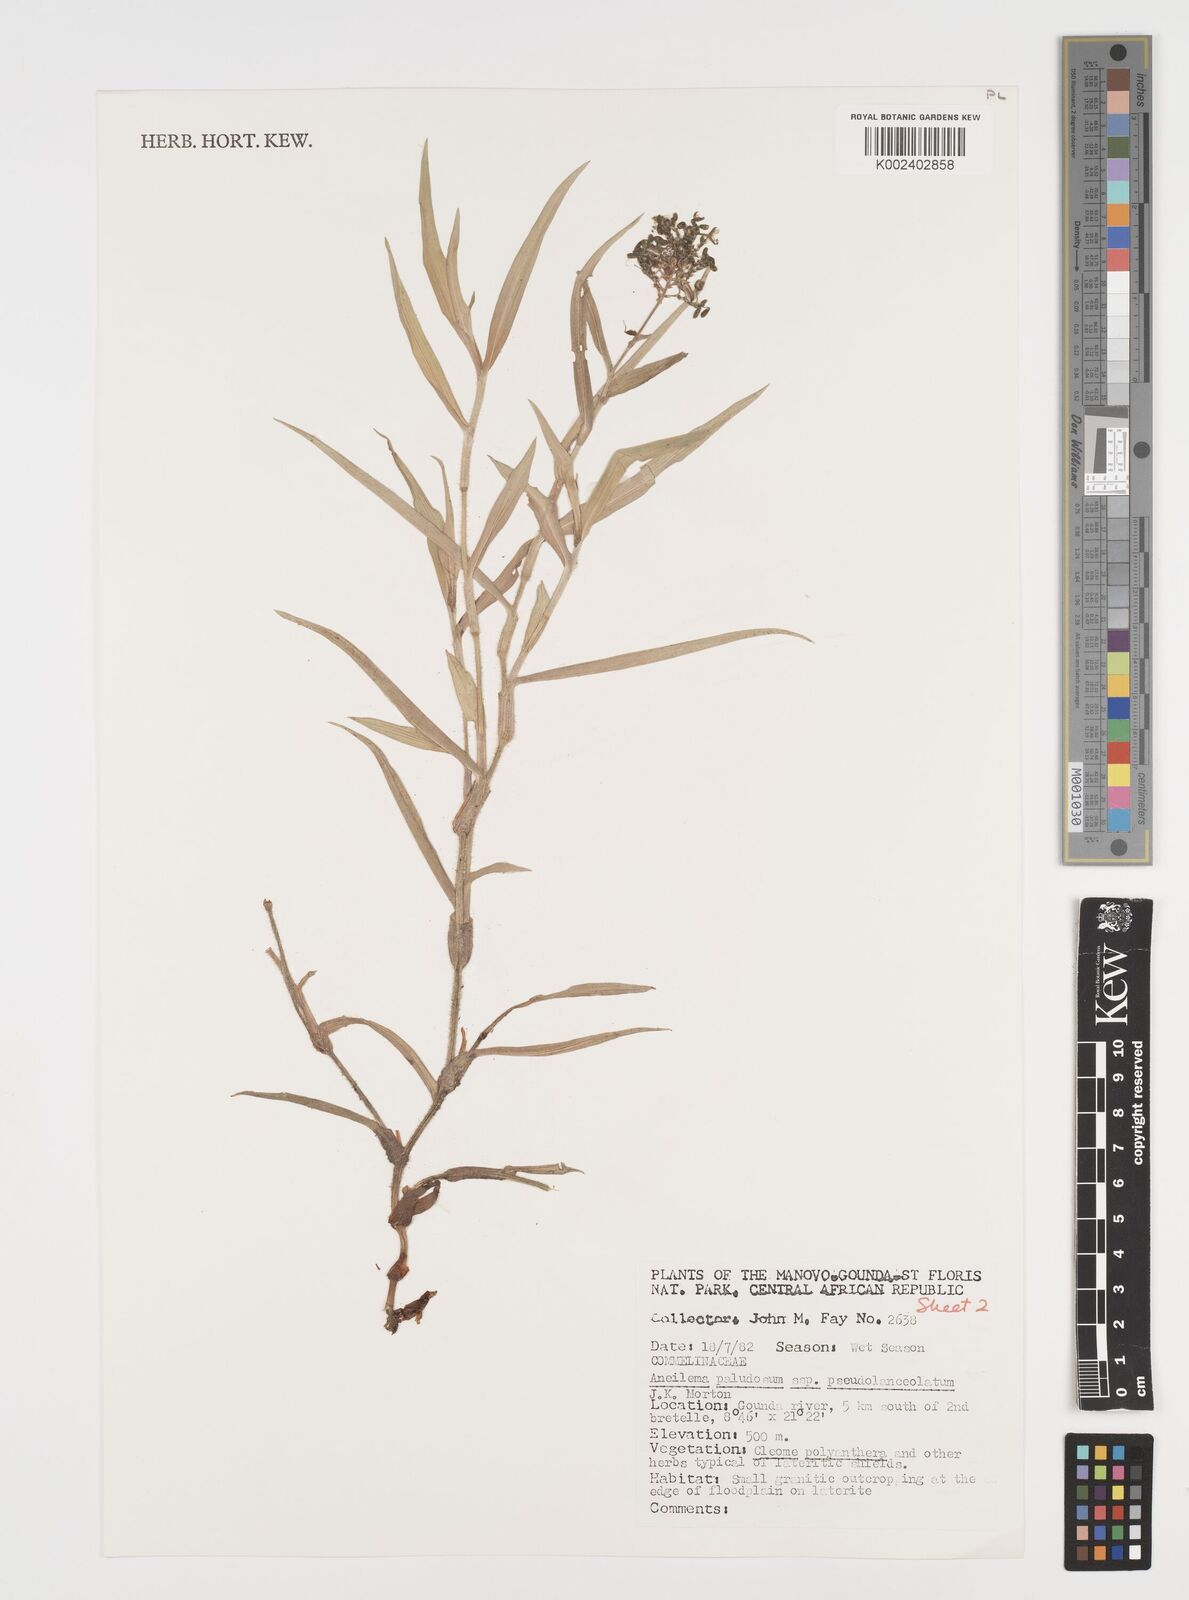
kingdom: Plantae
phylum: Tracheophyta
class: Liliopsida
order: Commelinales
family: Commelinaceae
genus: Aneilema
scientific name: Aneilema paludosum
